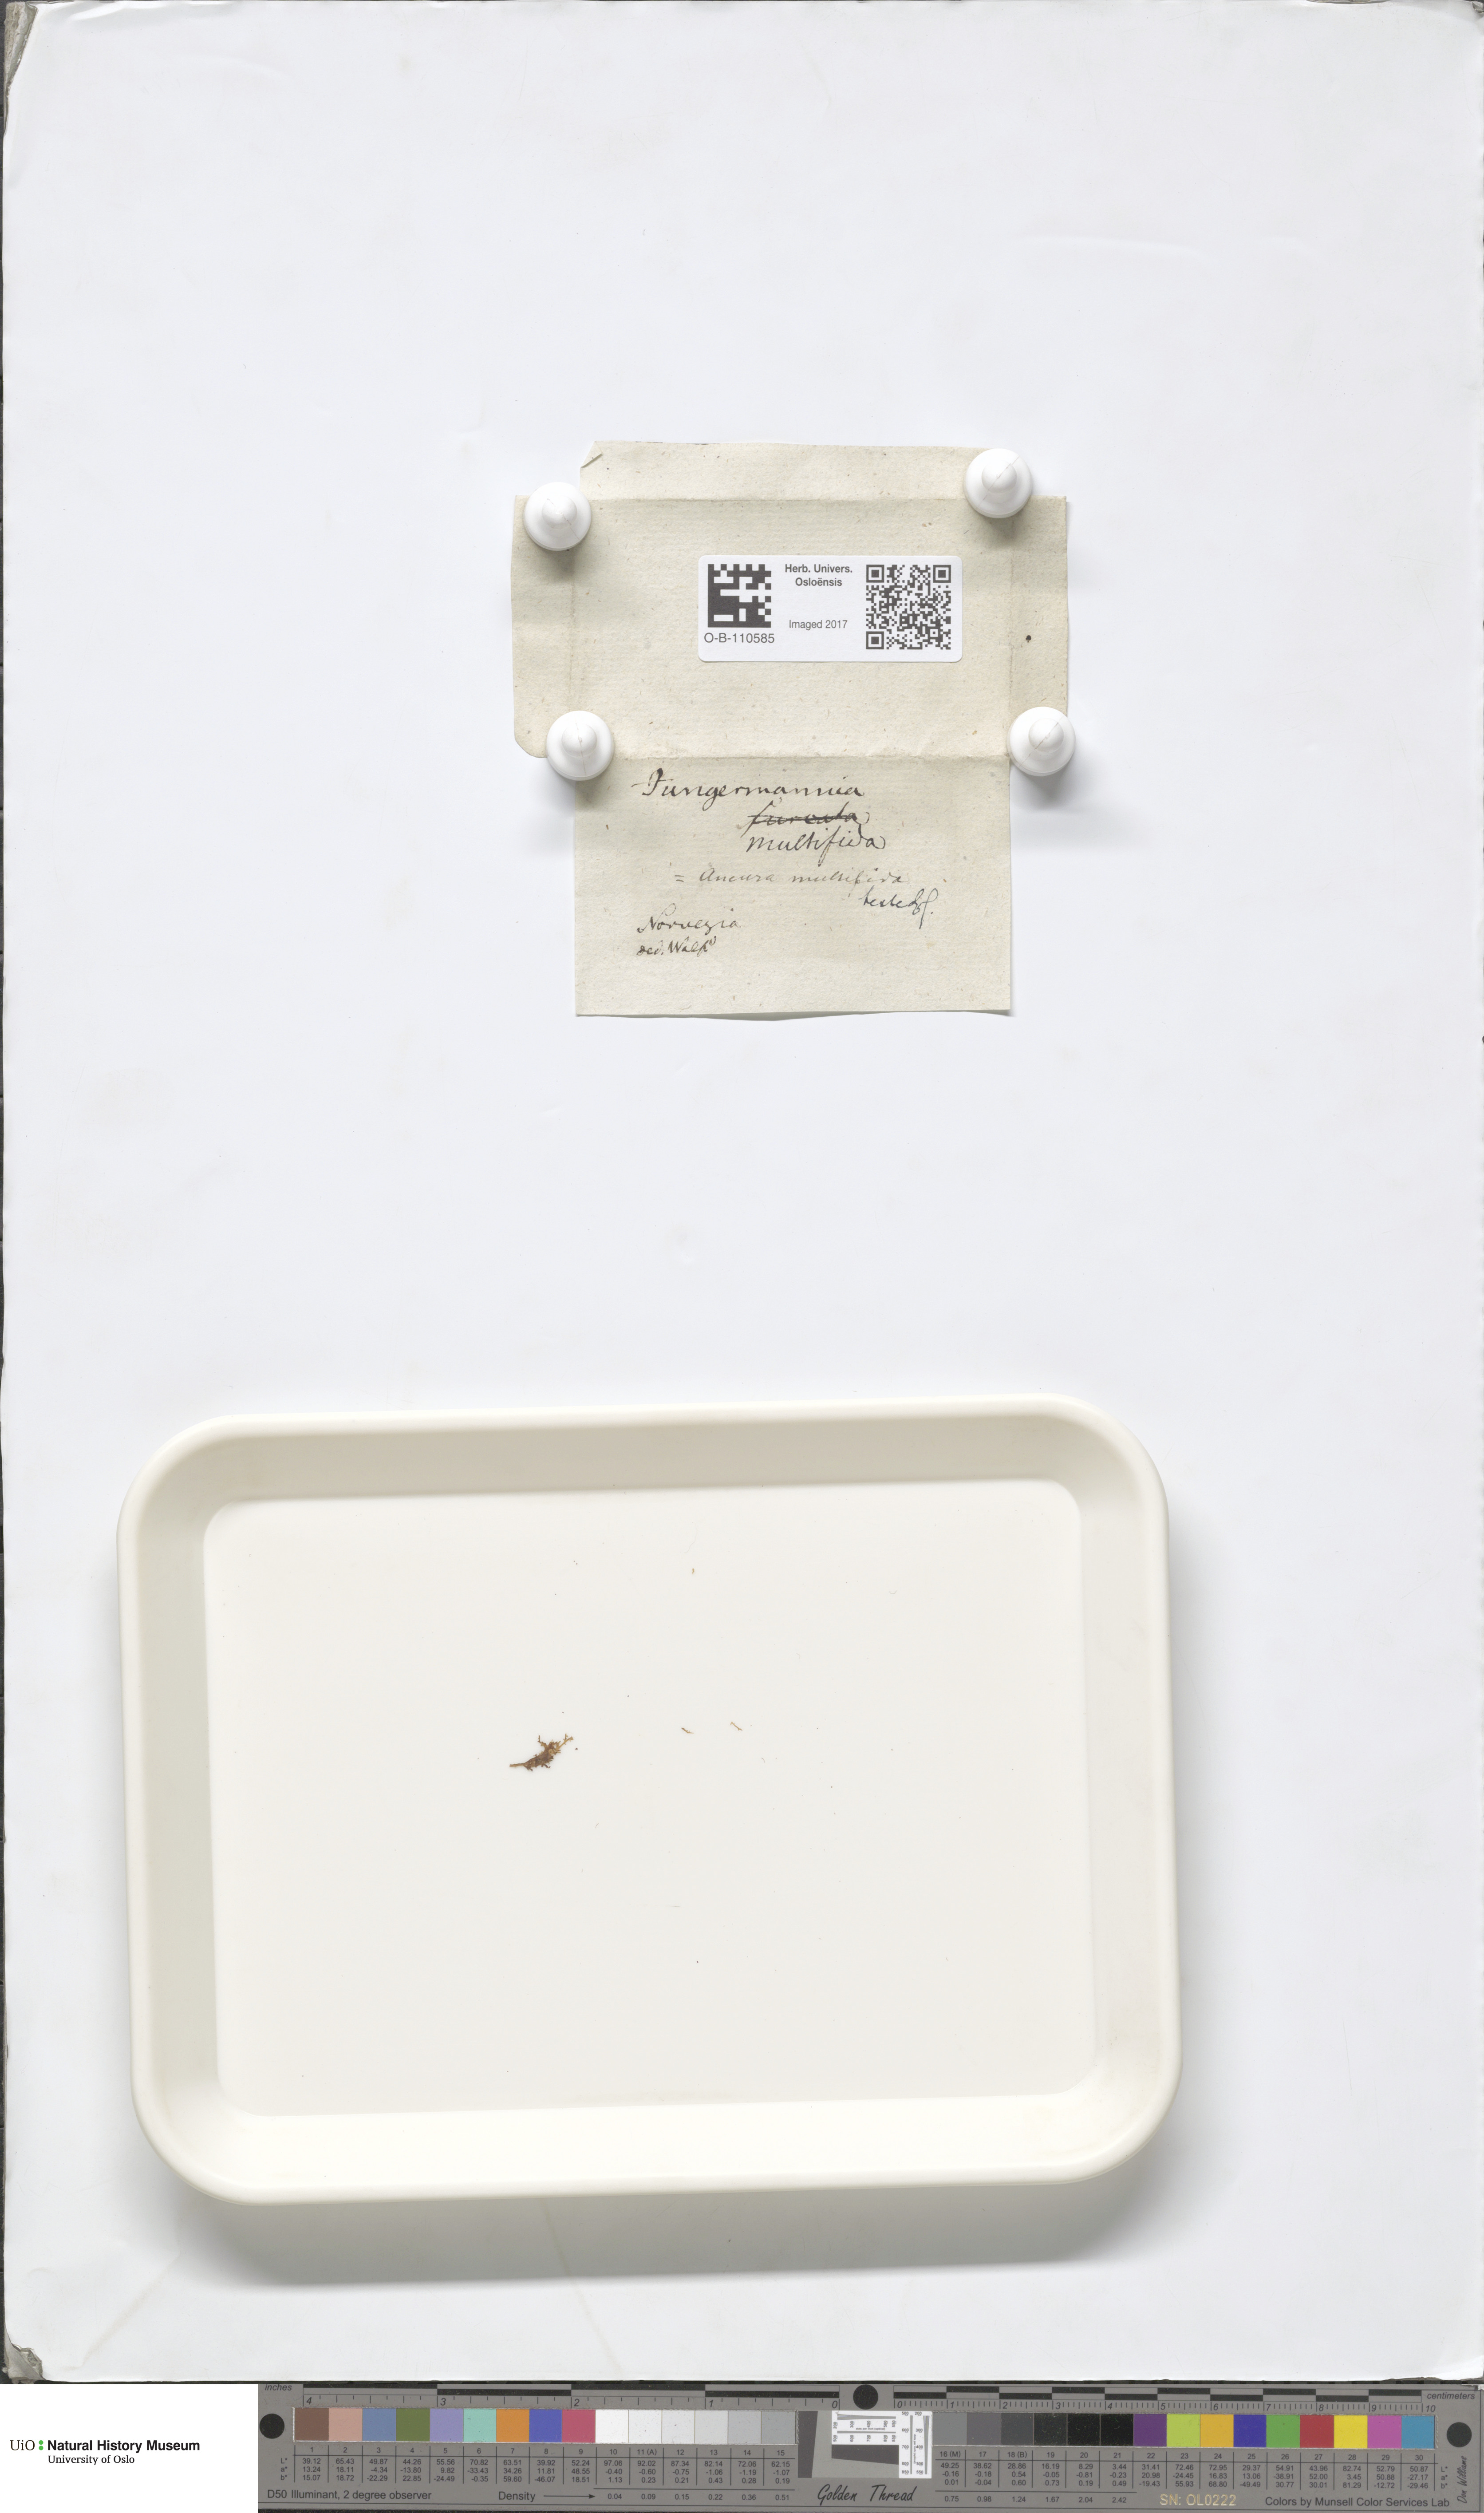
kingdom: Plantae
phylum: Marchantiophyta
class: Jungermanniopsida
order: Metzgeriales
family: Aneuraceae
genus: Riccardia
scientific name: Riccardia multifida
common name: Delicate germanderwort
